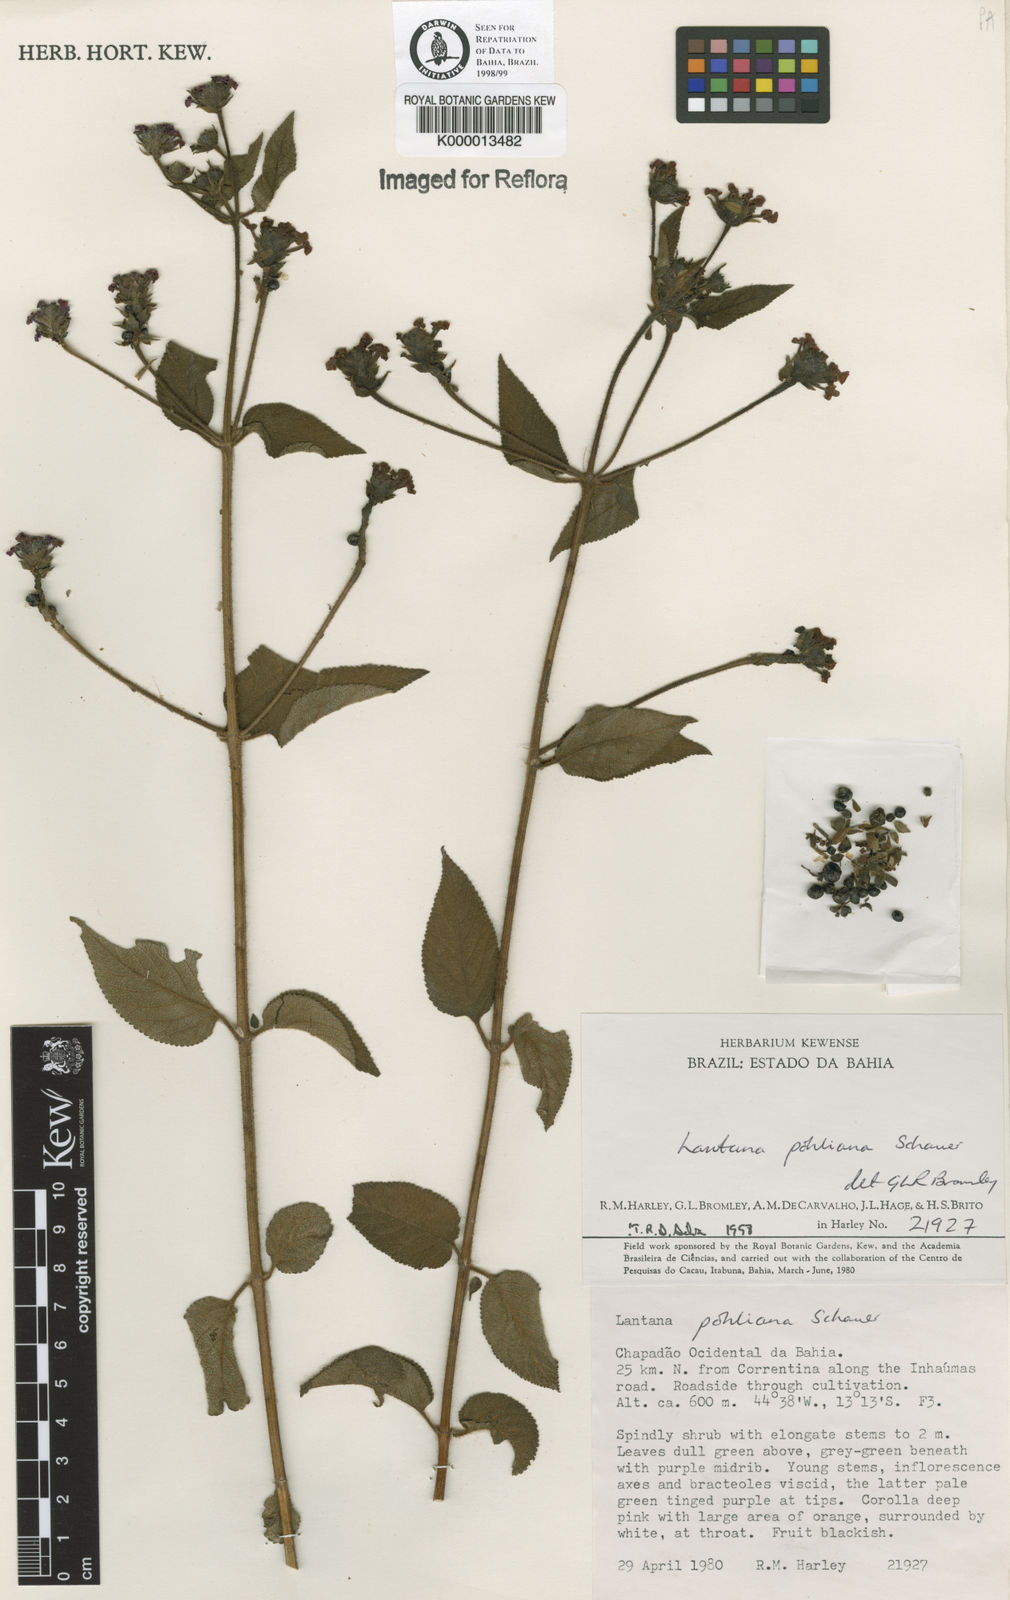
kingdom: Plantae
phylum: Tracheophyta
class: Magnoliopsida
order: Lamiales
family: Verbenaceae
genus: Lantana
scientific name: Lantana pohliana
